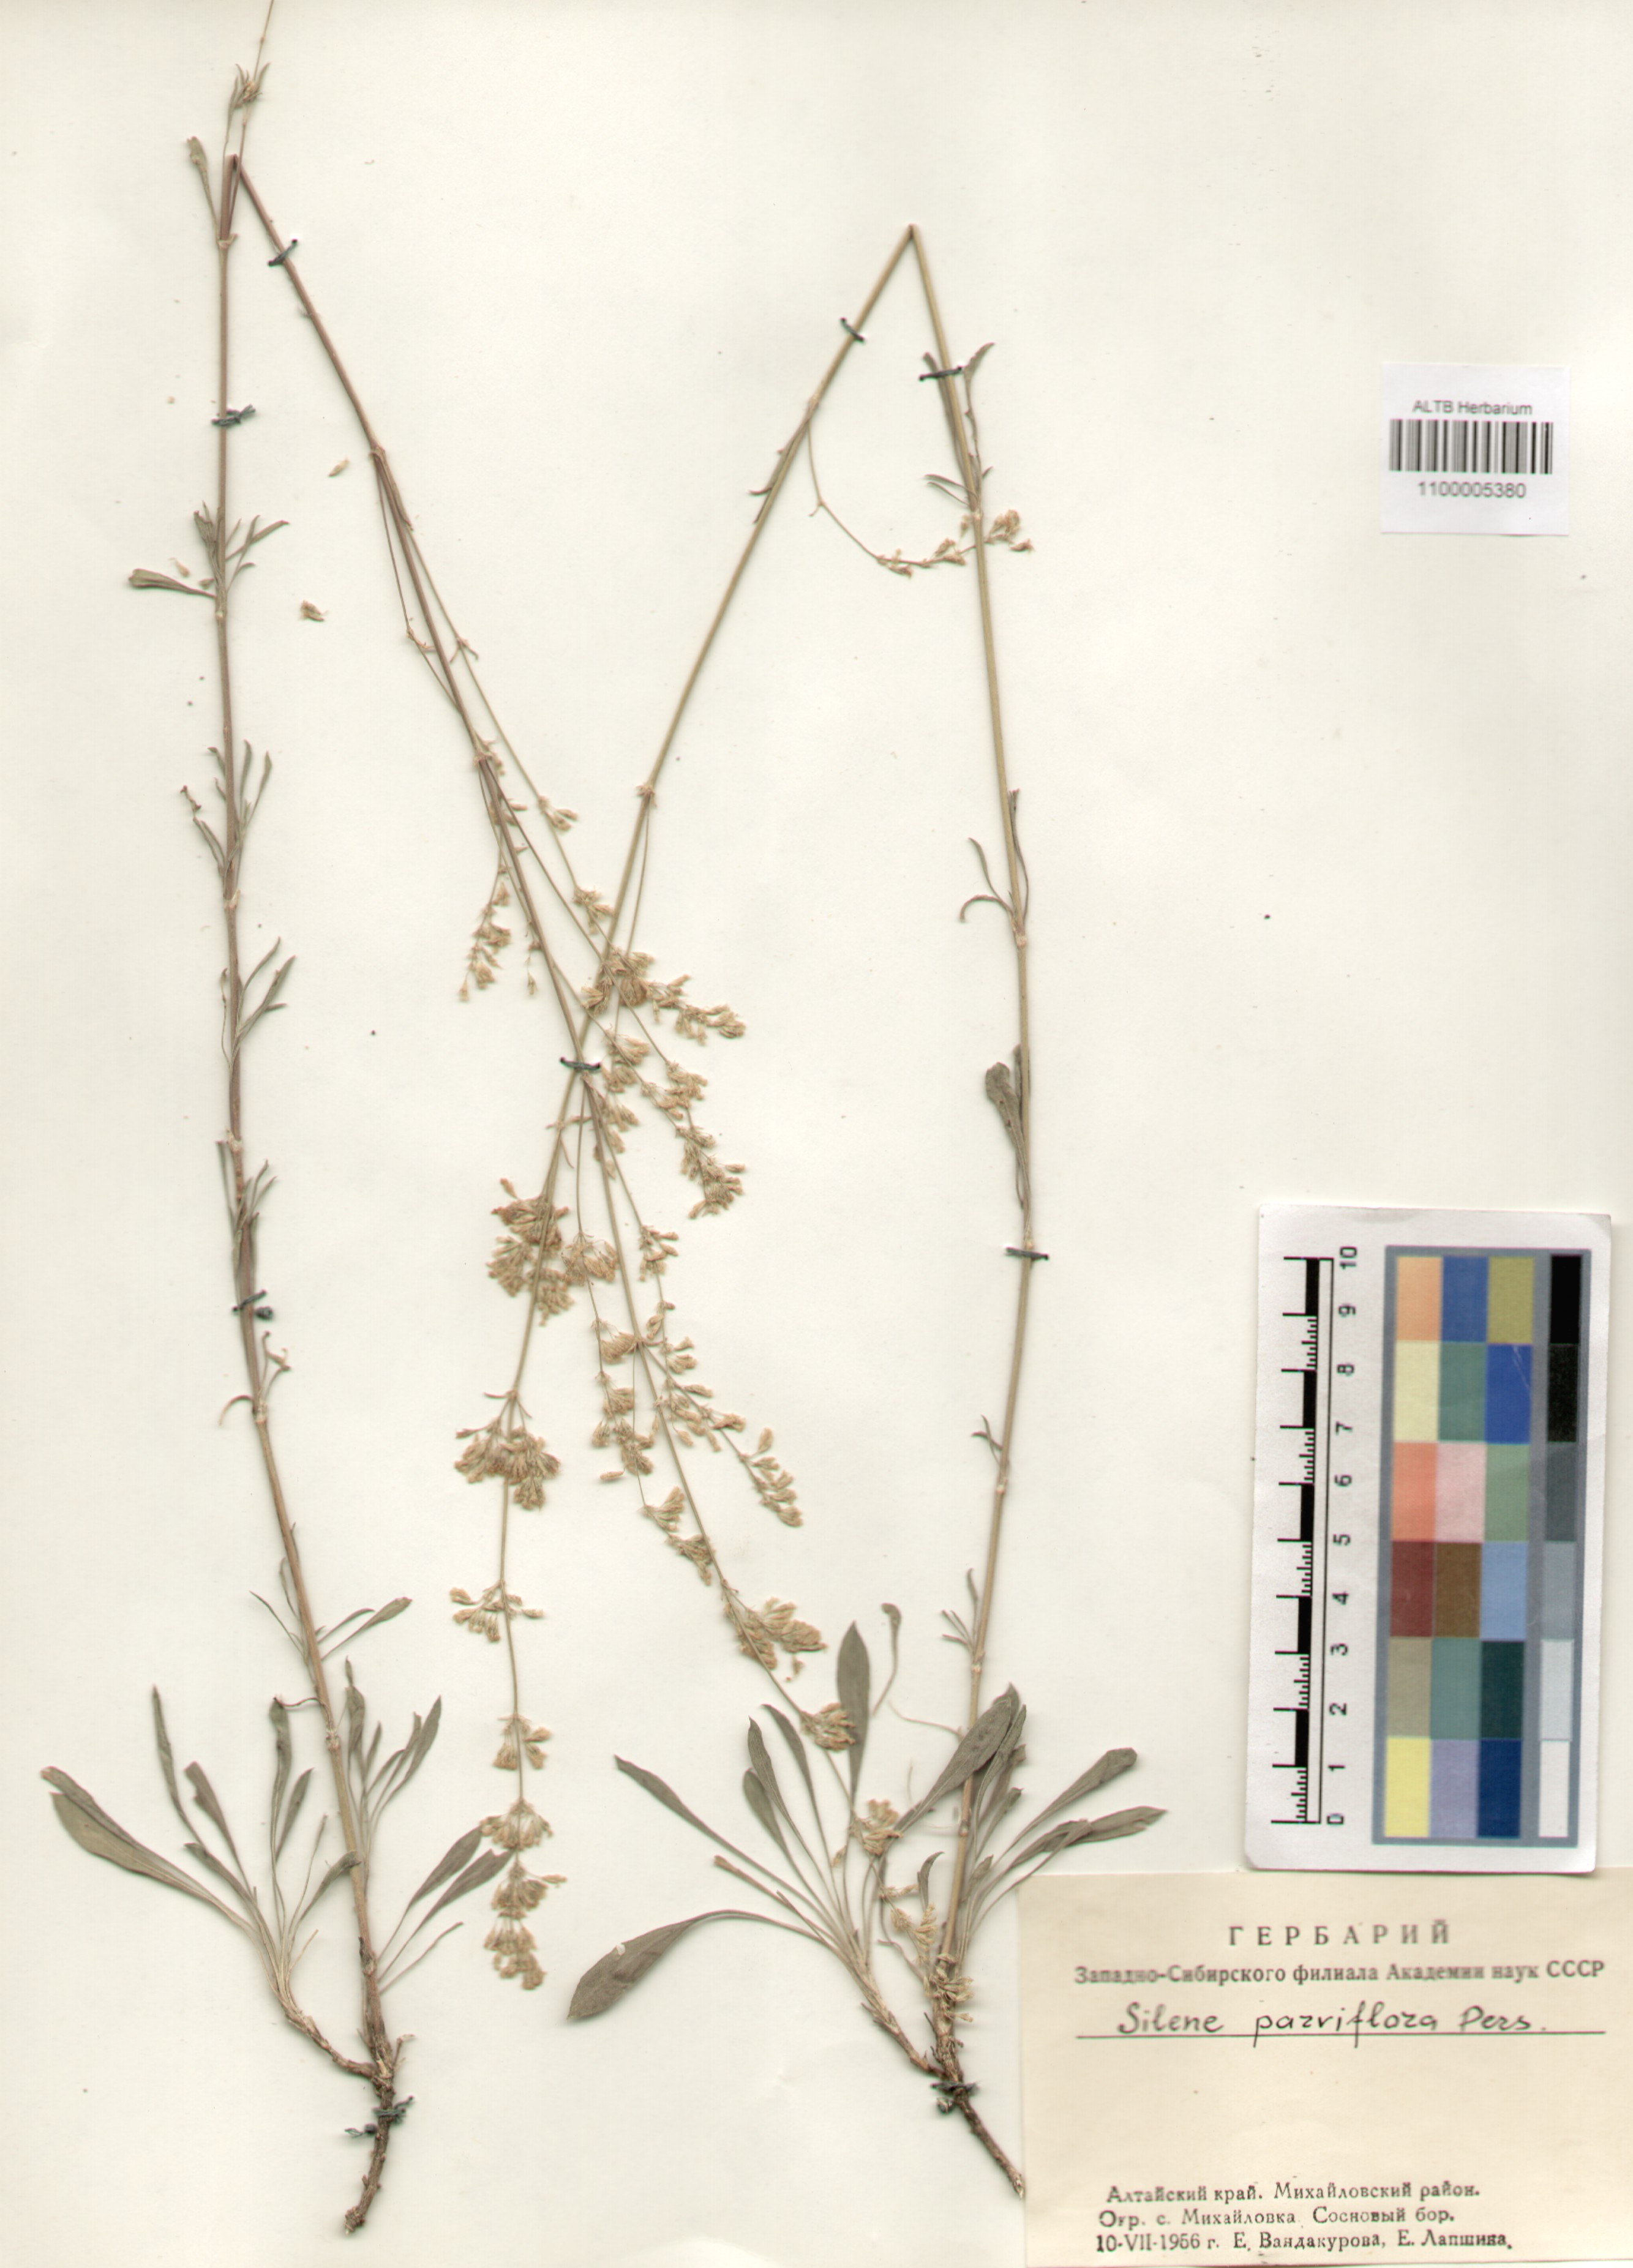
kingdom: Plantae
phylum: Tracheophyta
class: Magnoliopsida
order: Caryophyllales
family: Caryophyllaceae
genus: Silene
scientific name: Silene borysthenica
